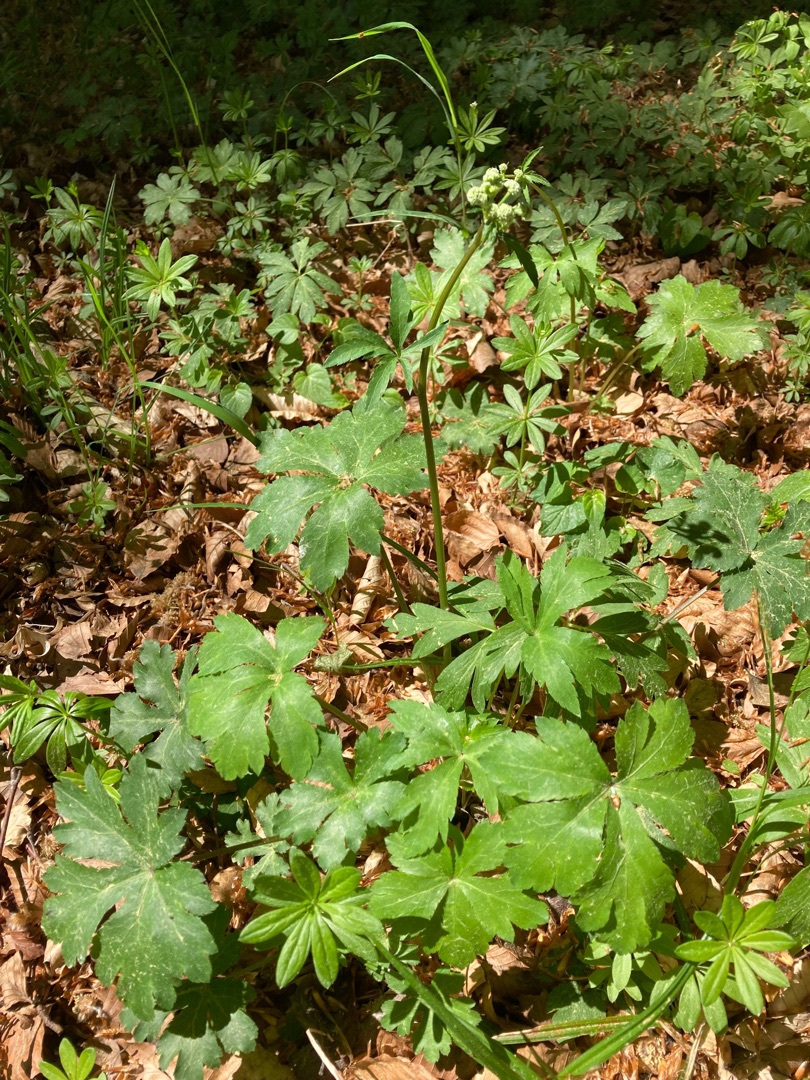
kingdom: Plantae
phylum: Tracheophyta
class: Magnoliopsida
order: Apiales
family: Apiaceae
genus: Sanicula
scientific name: Sanicula europaea
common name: Sanikel
